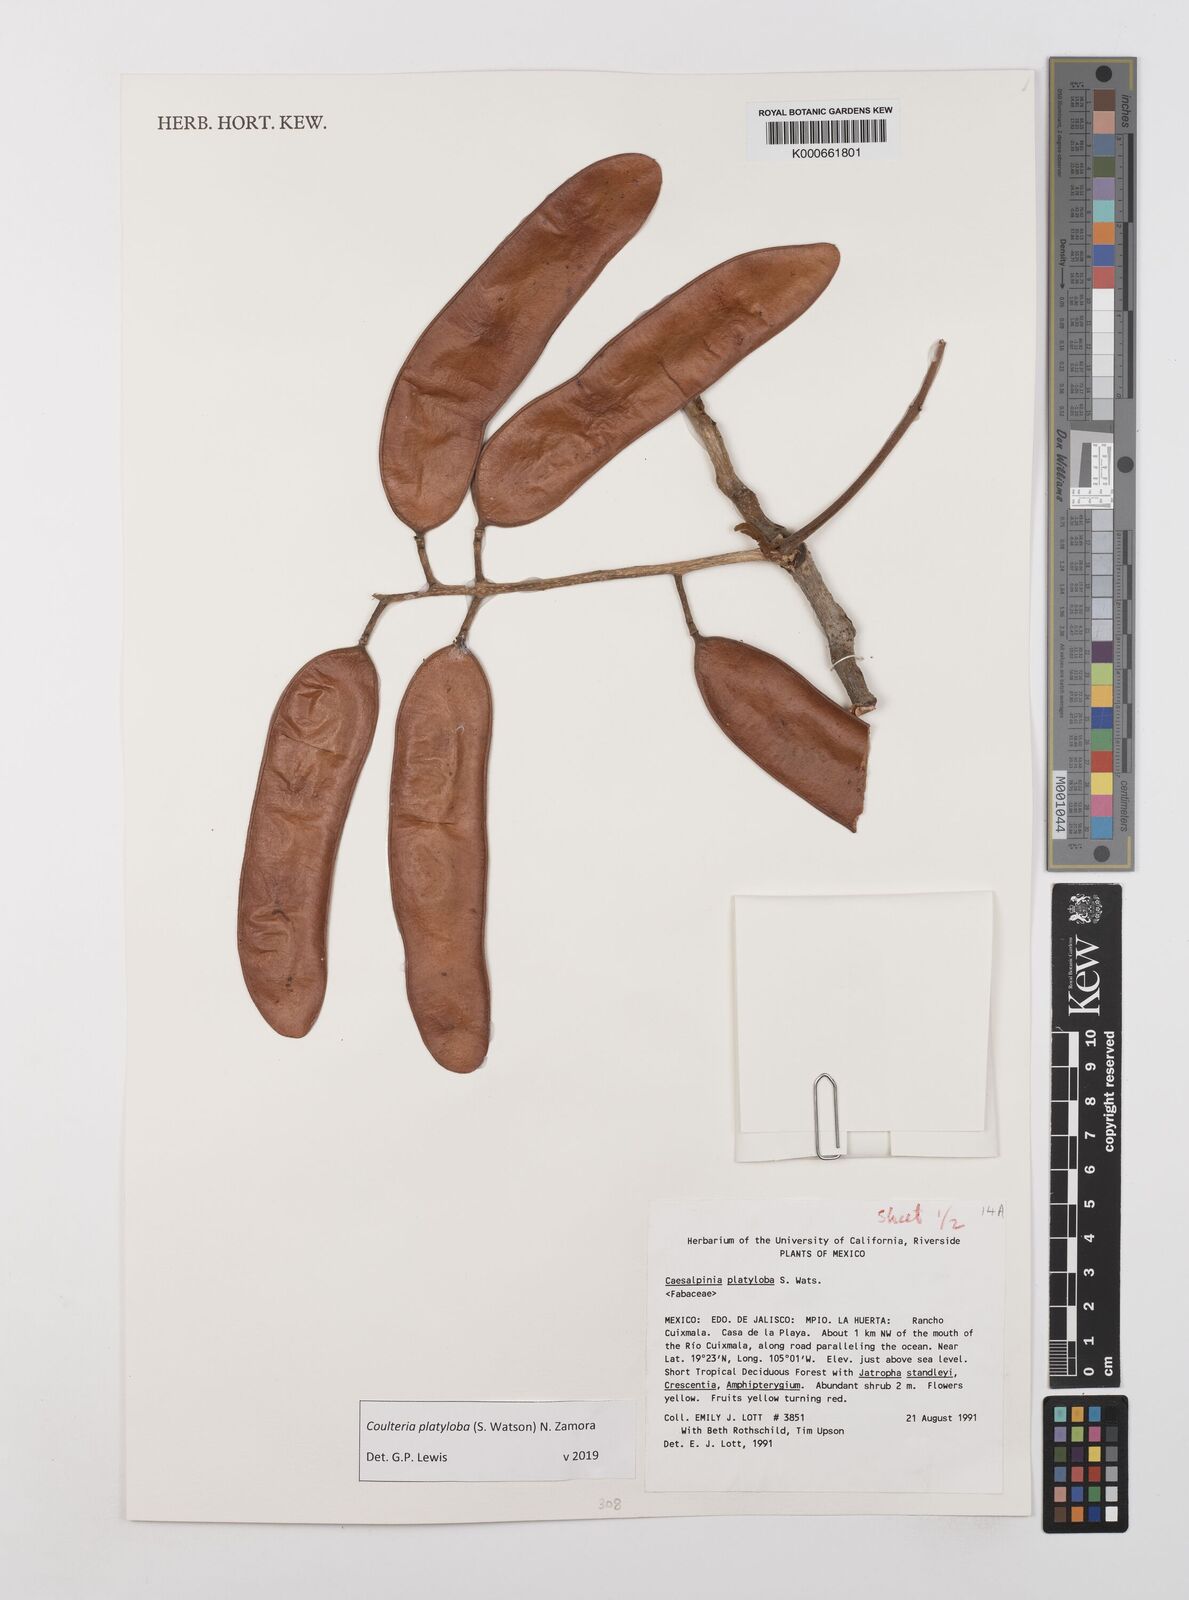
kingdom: Plantae
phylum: Tracheophyta
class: Magnoliopsida
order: Fabales
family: Fabaceae
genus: Coulteria
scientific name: Coulteria platyloba
